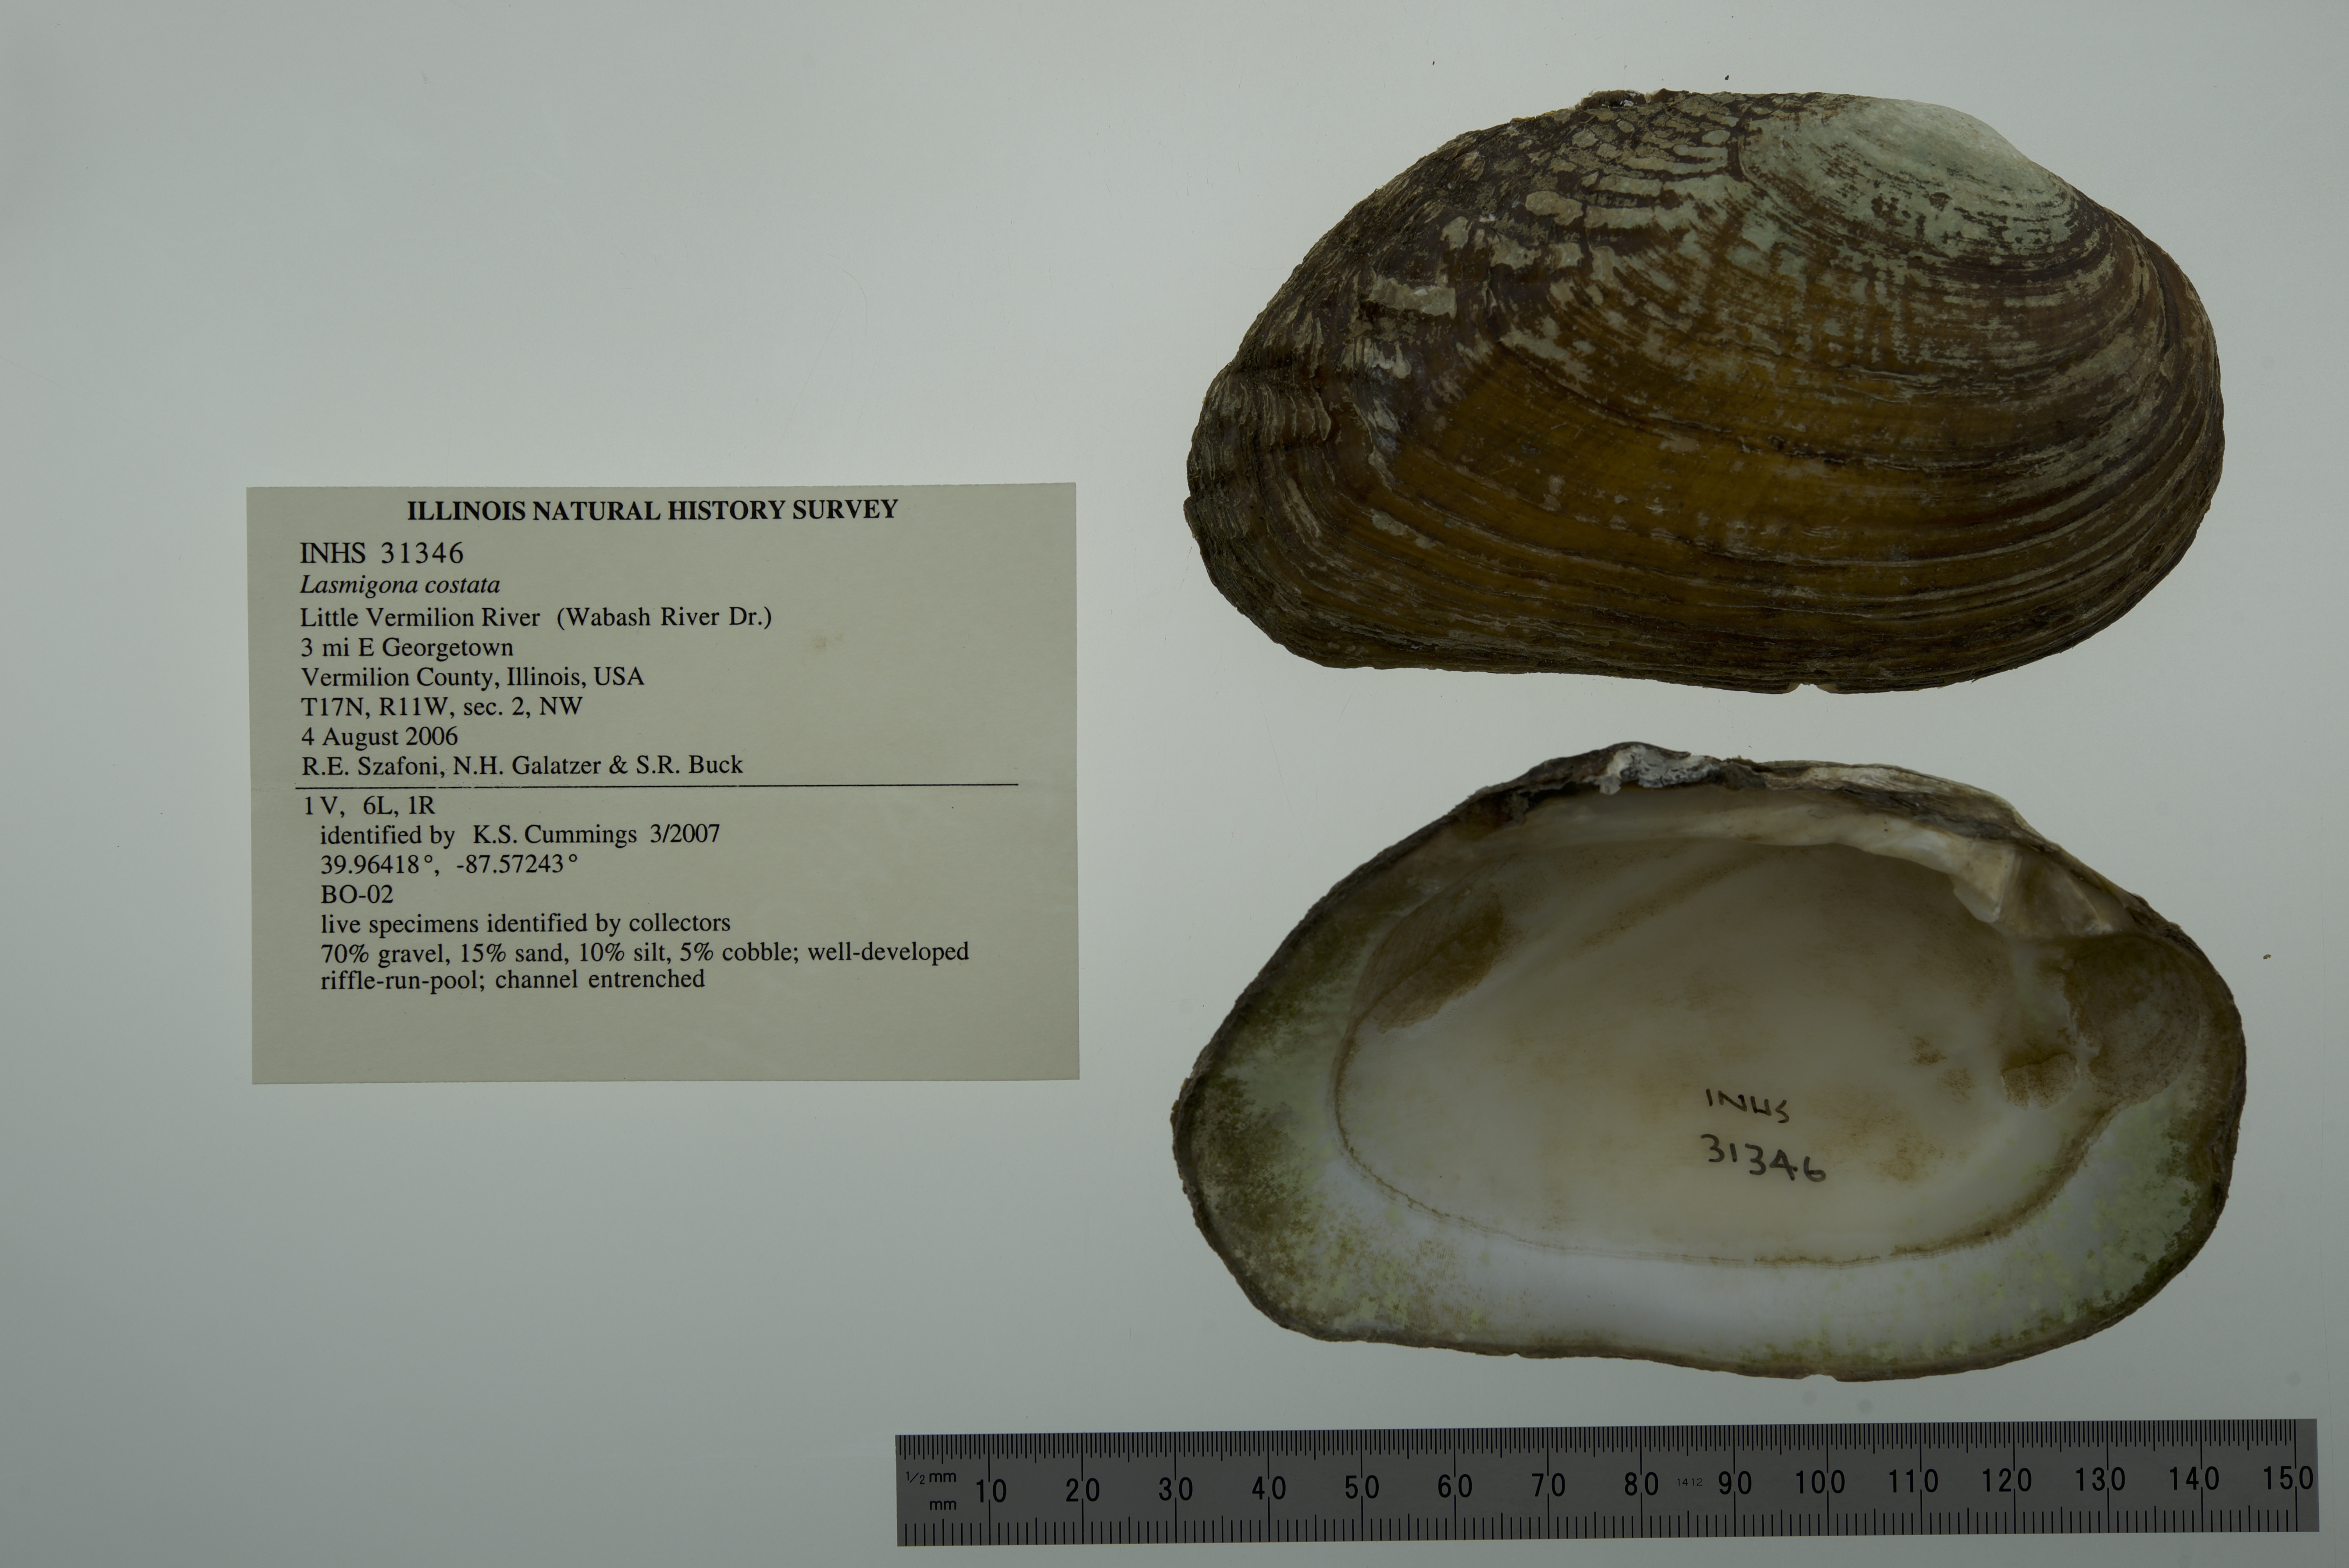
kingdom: Animalia
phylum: Mollusca
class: Bivalvia
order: Unionida
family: Unionidae
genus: Lasmigona
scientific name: Lasmigona costata
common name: Flutedshell
